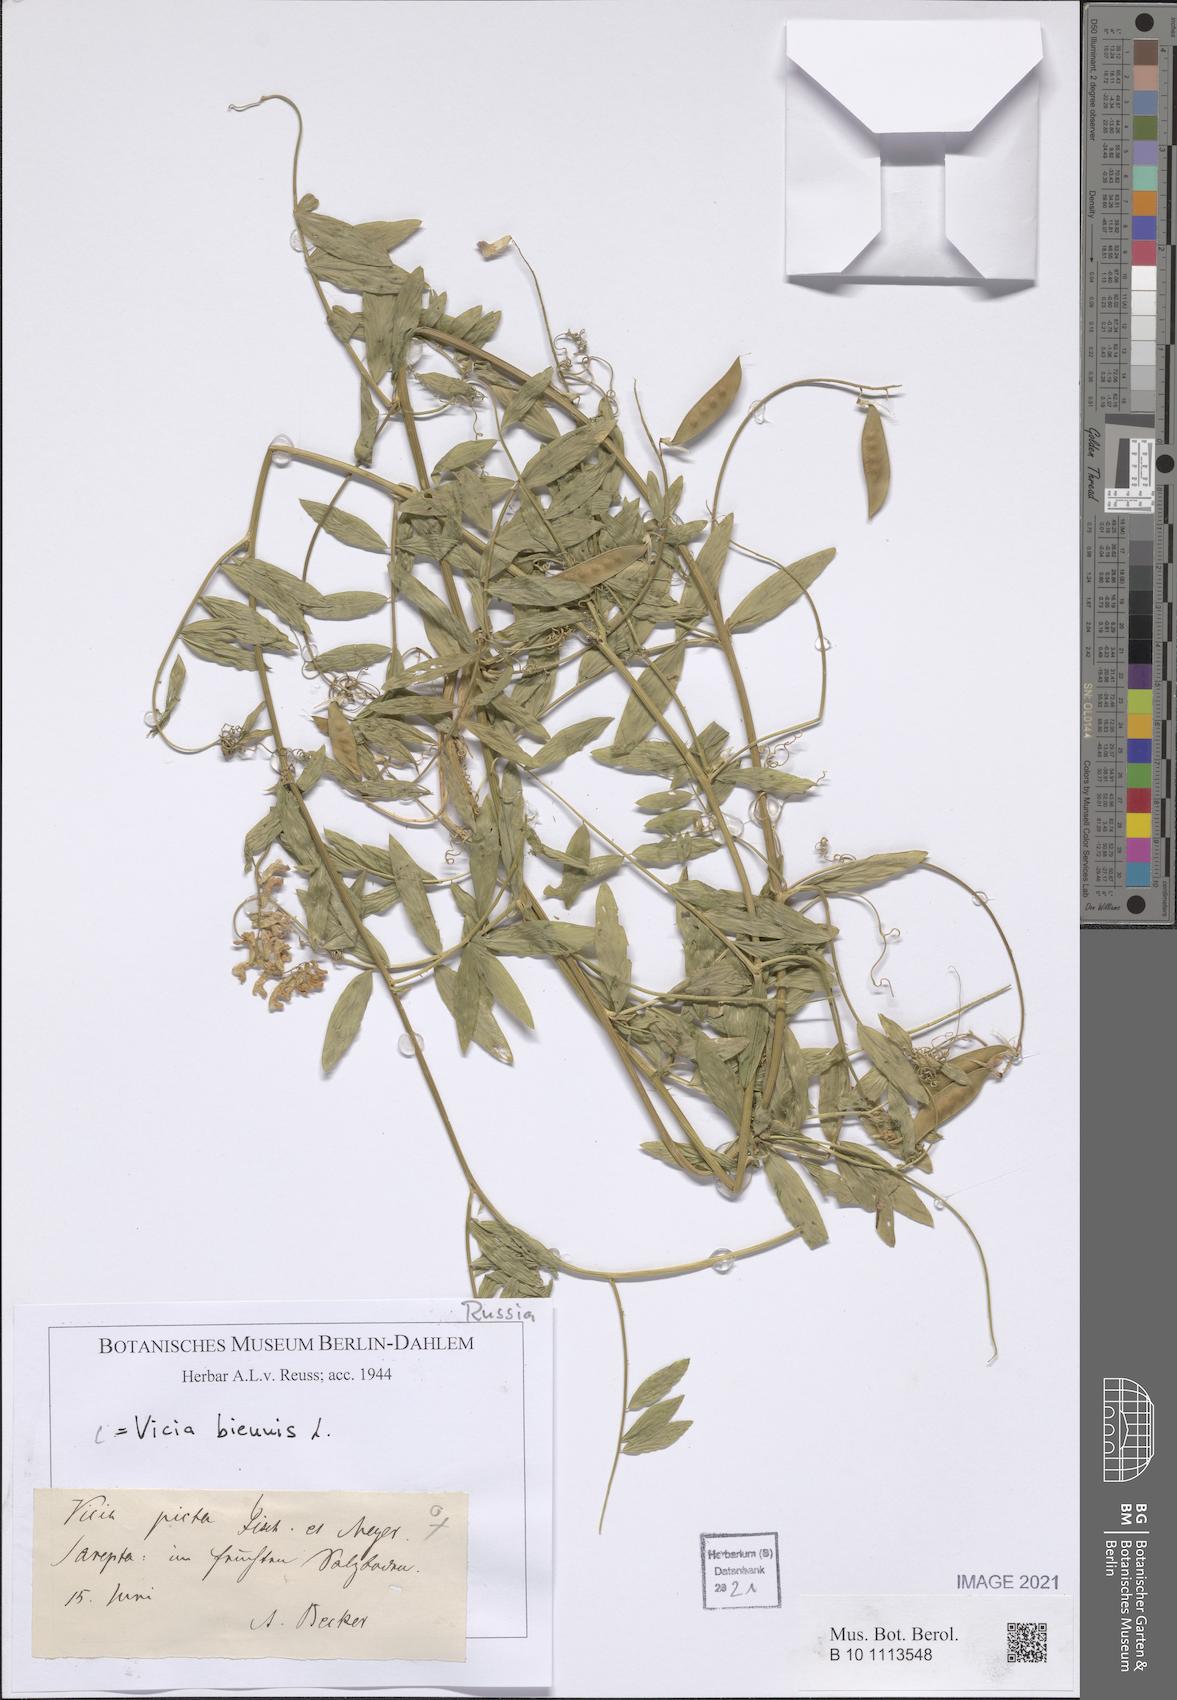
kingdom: Plantae
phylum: Tracheophyta
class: Magnoliopsida
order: Fabales
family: Fabaceae
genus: Vicia
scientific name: Vicia biennis
